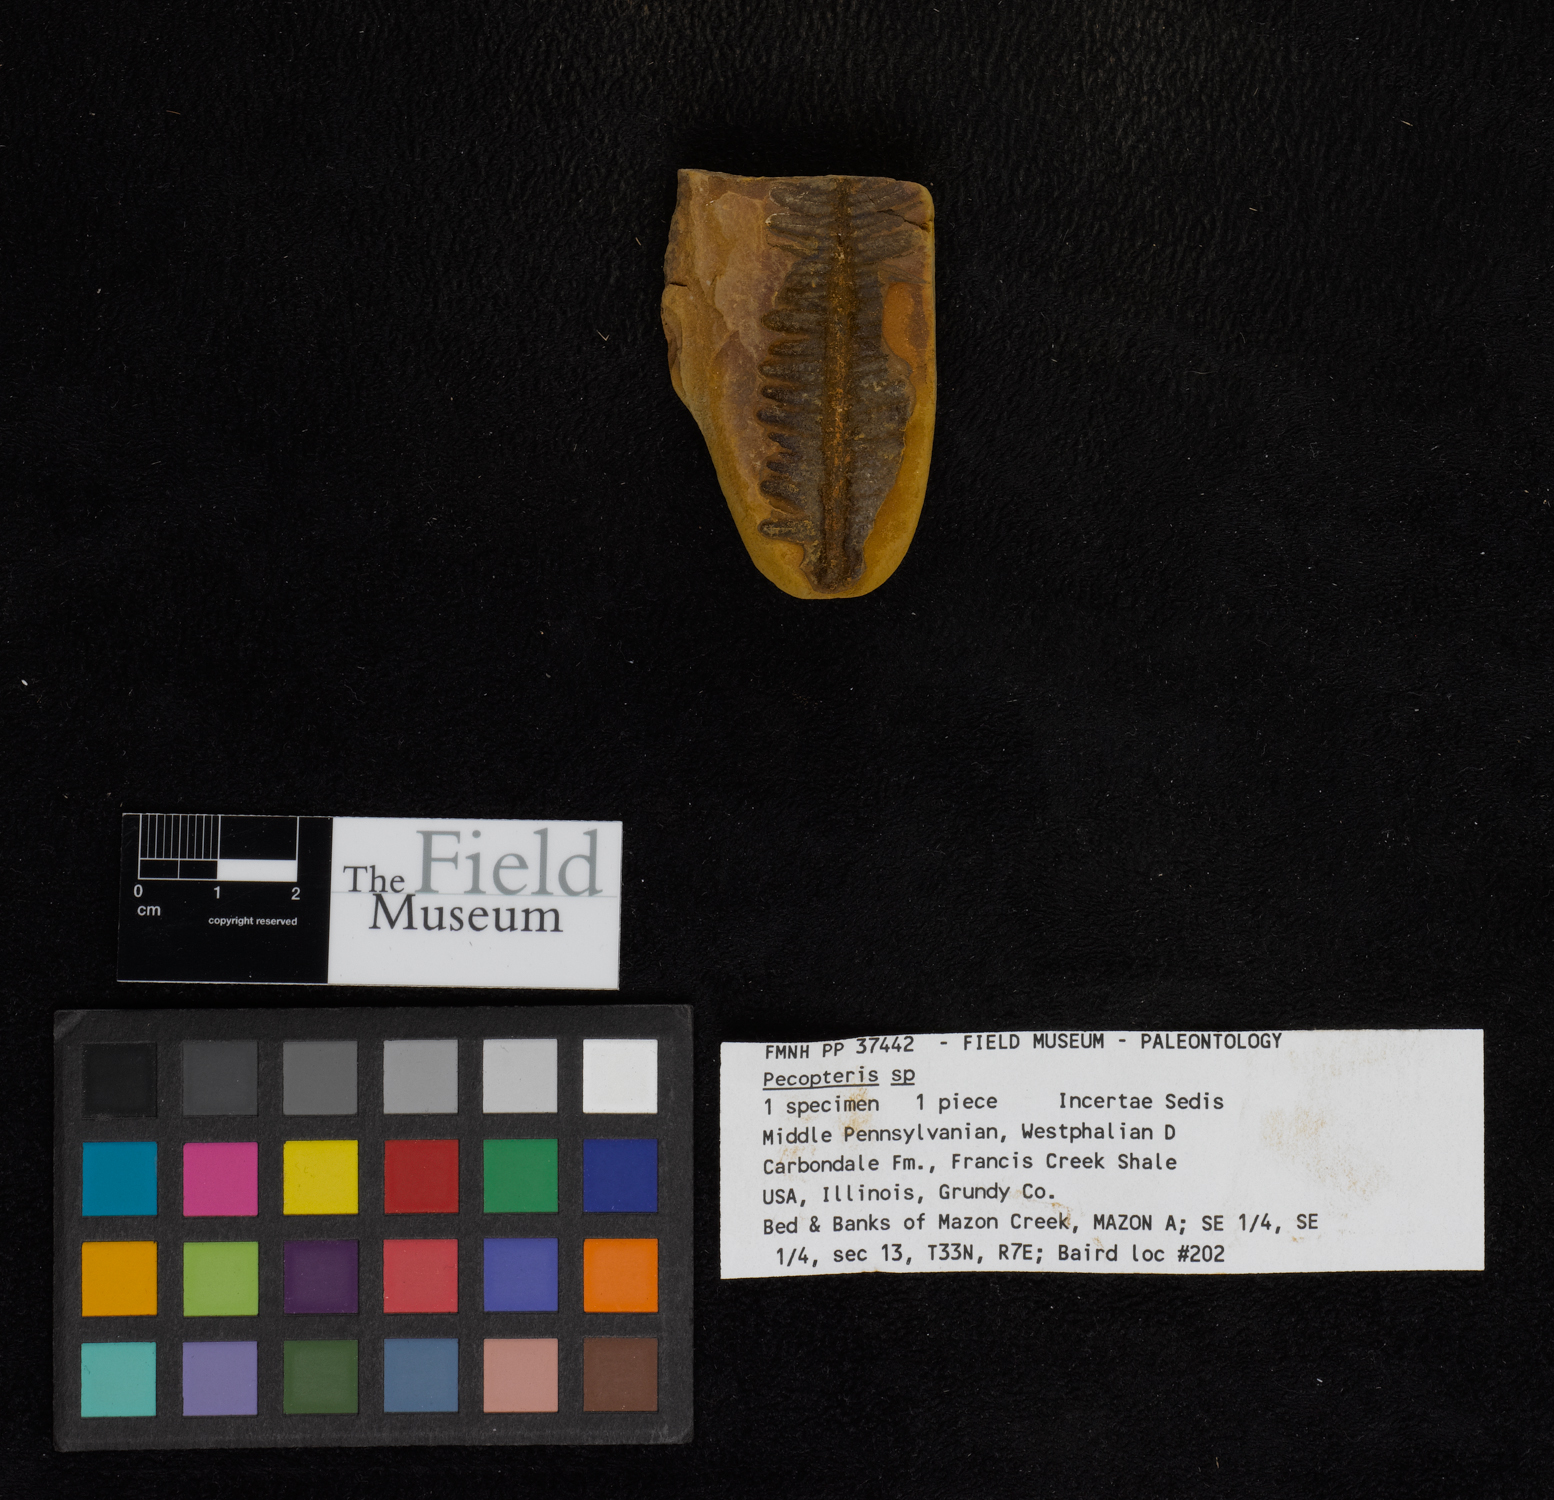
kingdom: Plantae
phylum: Tracheophyta
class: Polypodiopsida
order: Marattiales
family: Asterothecaceae
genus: Pecopteris
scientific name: Pecopteris
